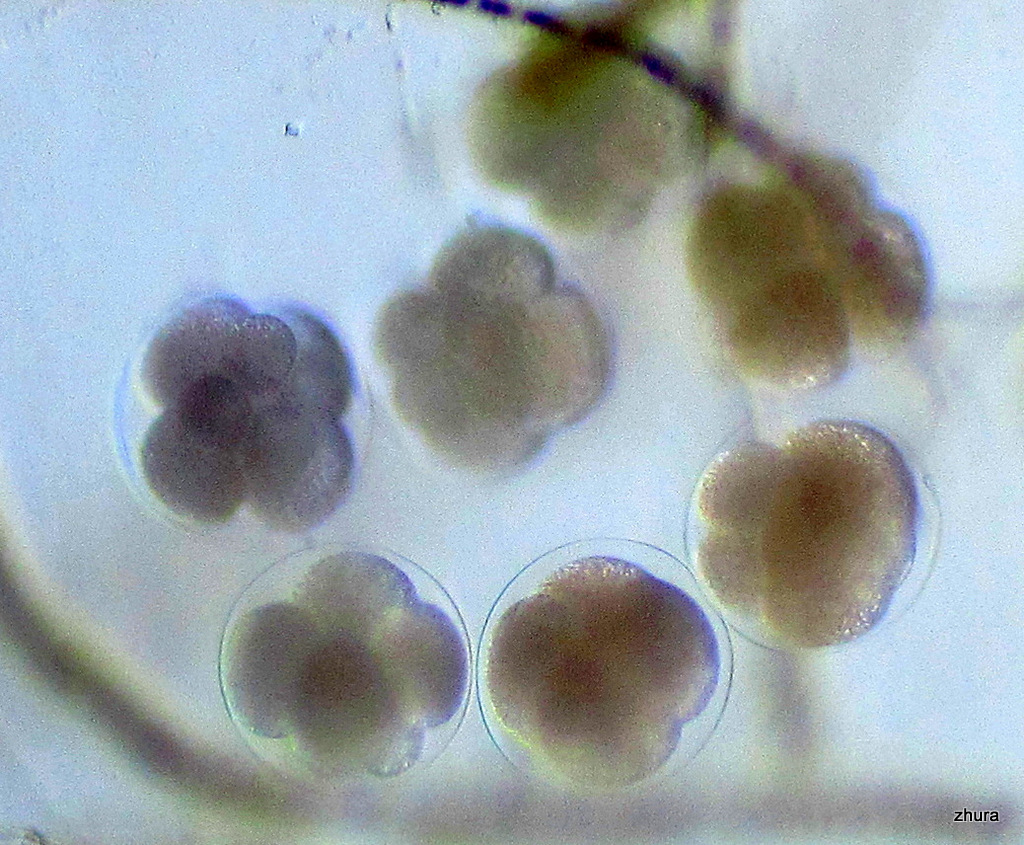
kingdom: Animalia
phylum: Mollusca
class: Gastropoda
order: Littorinimorpha
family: Littorinidae
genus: Littorina
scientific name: Littorina
